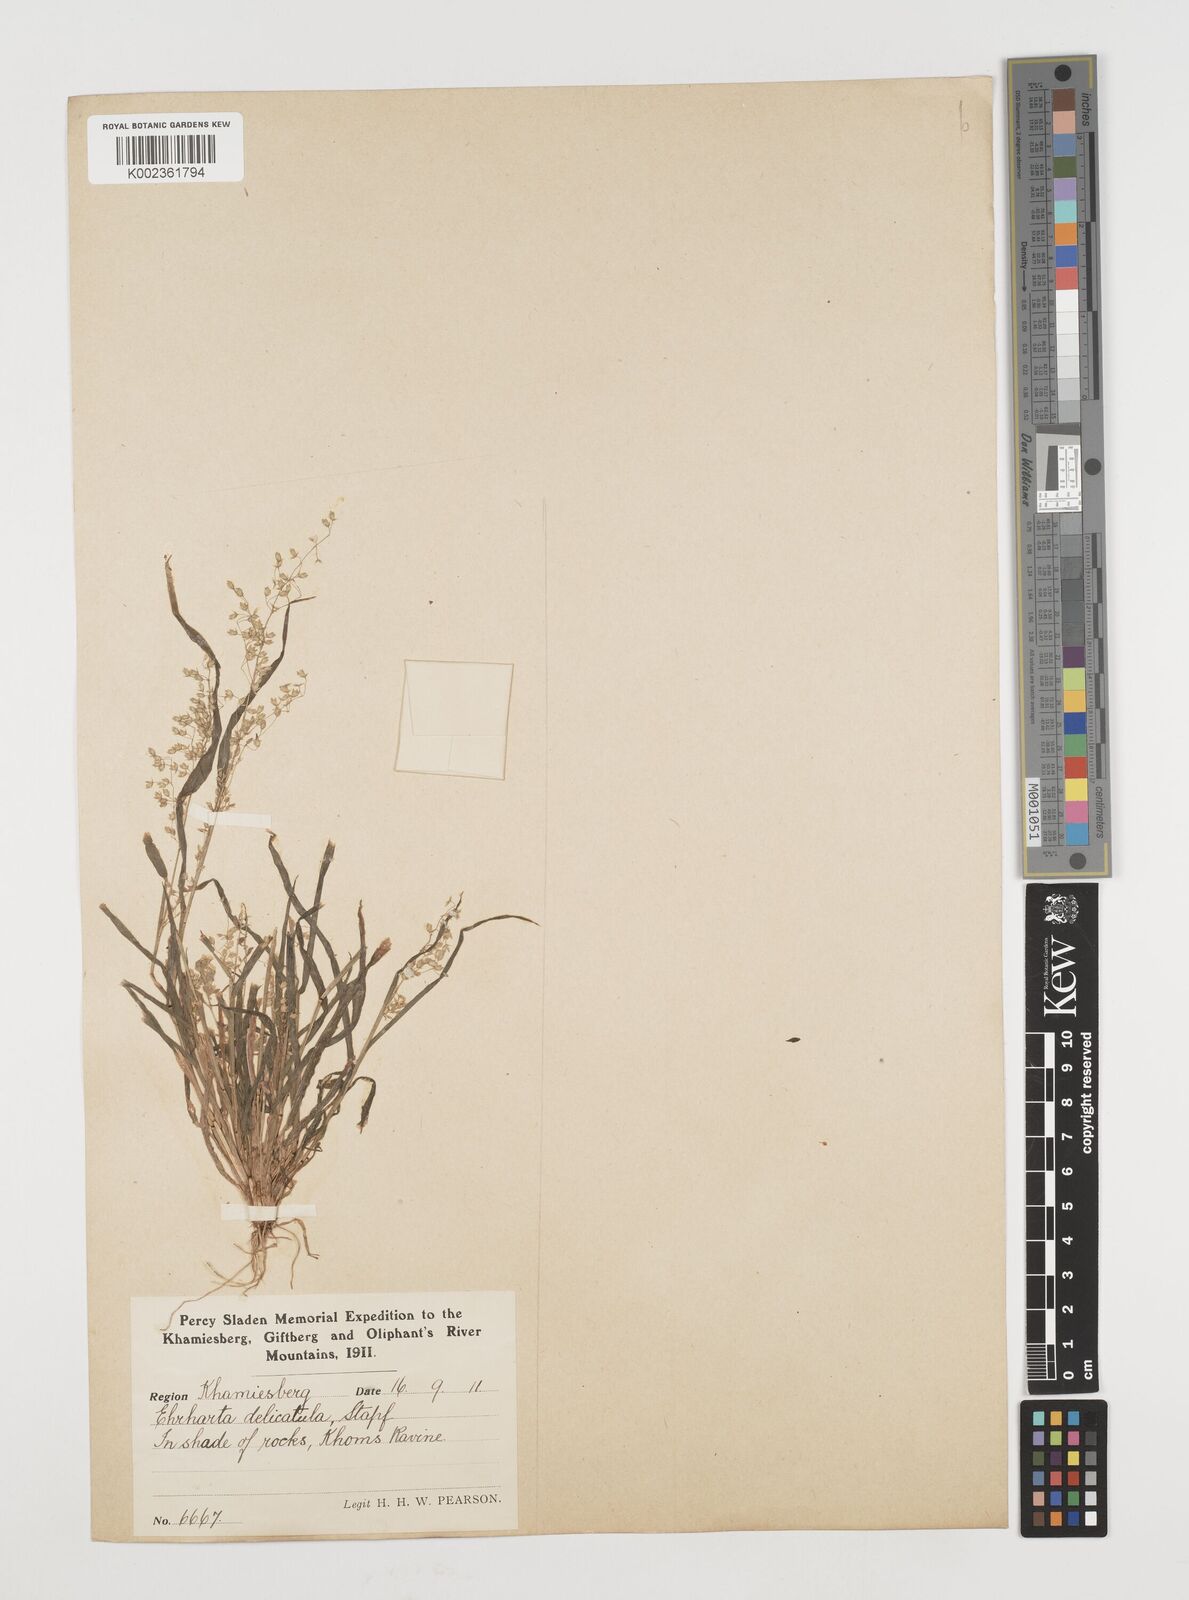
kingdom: Plantae
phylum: Tracheophyta
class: Liliopsida
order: Poales
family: Poaceae
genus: Ehrharta
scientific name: Ehrharta delicatula
